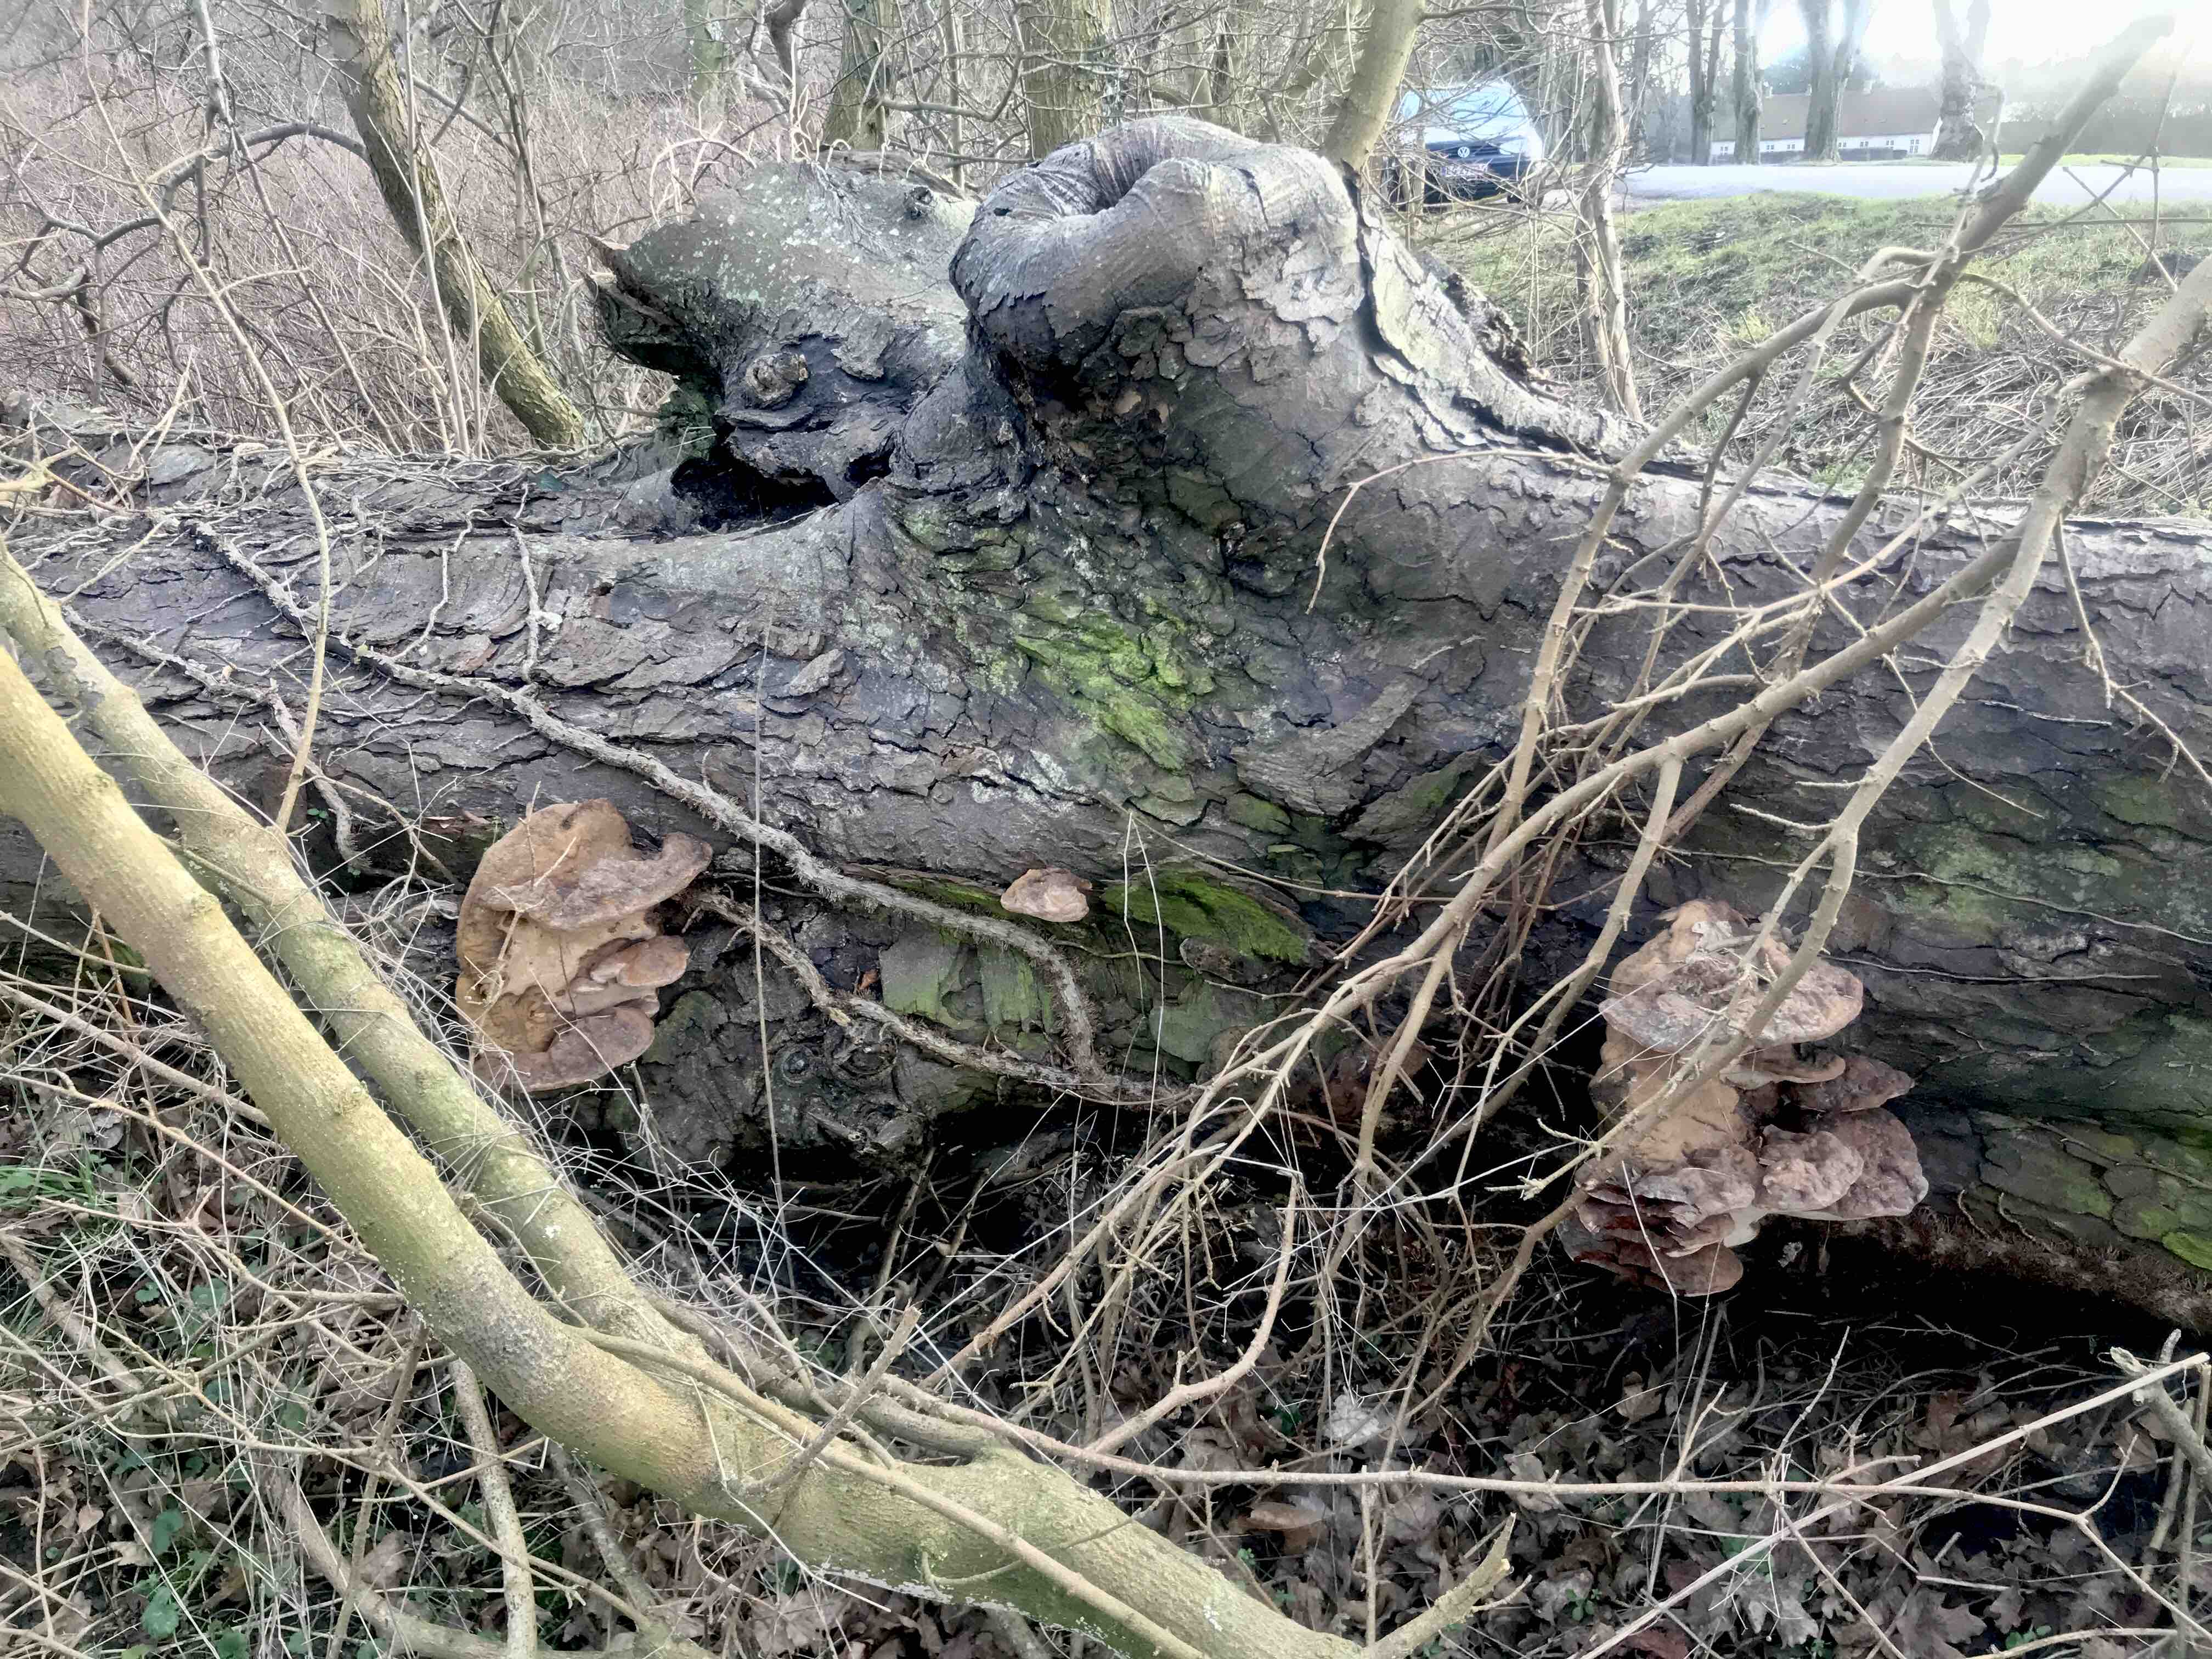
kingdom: Fungi
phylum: Basidiomycota
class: Agaricomycetes
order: Polyporales
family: Polyporaceae
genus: Ganoderma
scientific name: Ganoderma applanatum
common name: flad lakporesvamp
